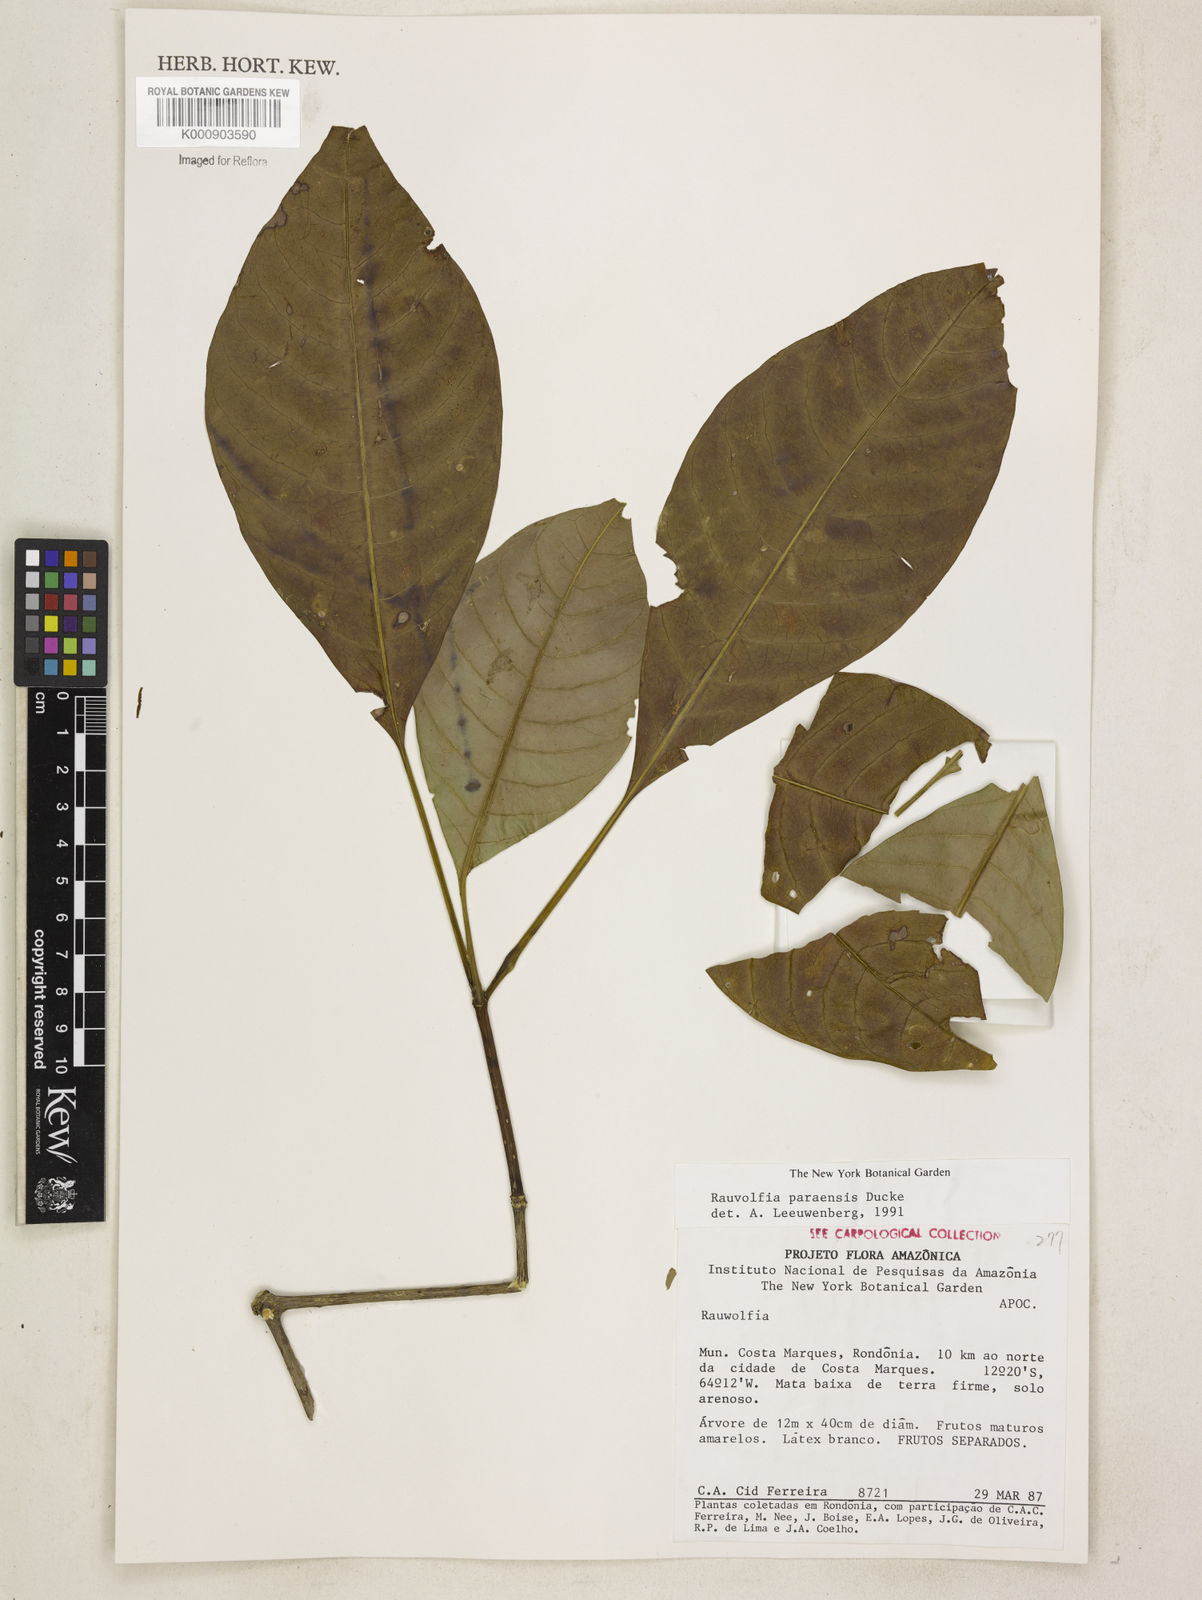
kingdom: Plantae
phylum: Tracheophyta
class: Magnoliopsida
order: Gentianales
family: Apocynaceae
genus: Rauvolfia
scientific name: Rauvolfia paraensis
